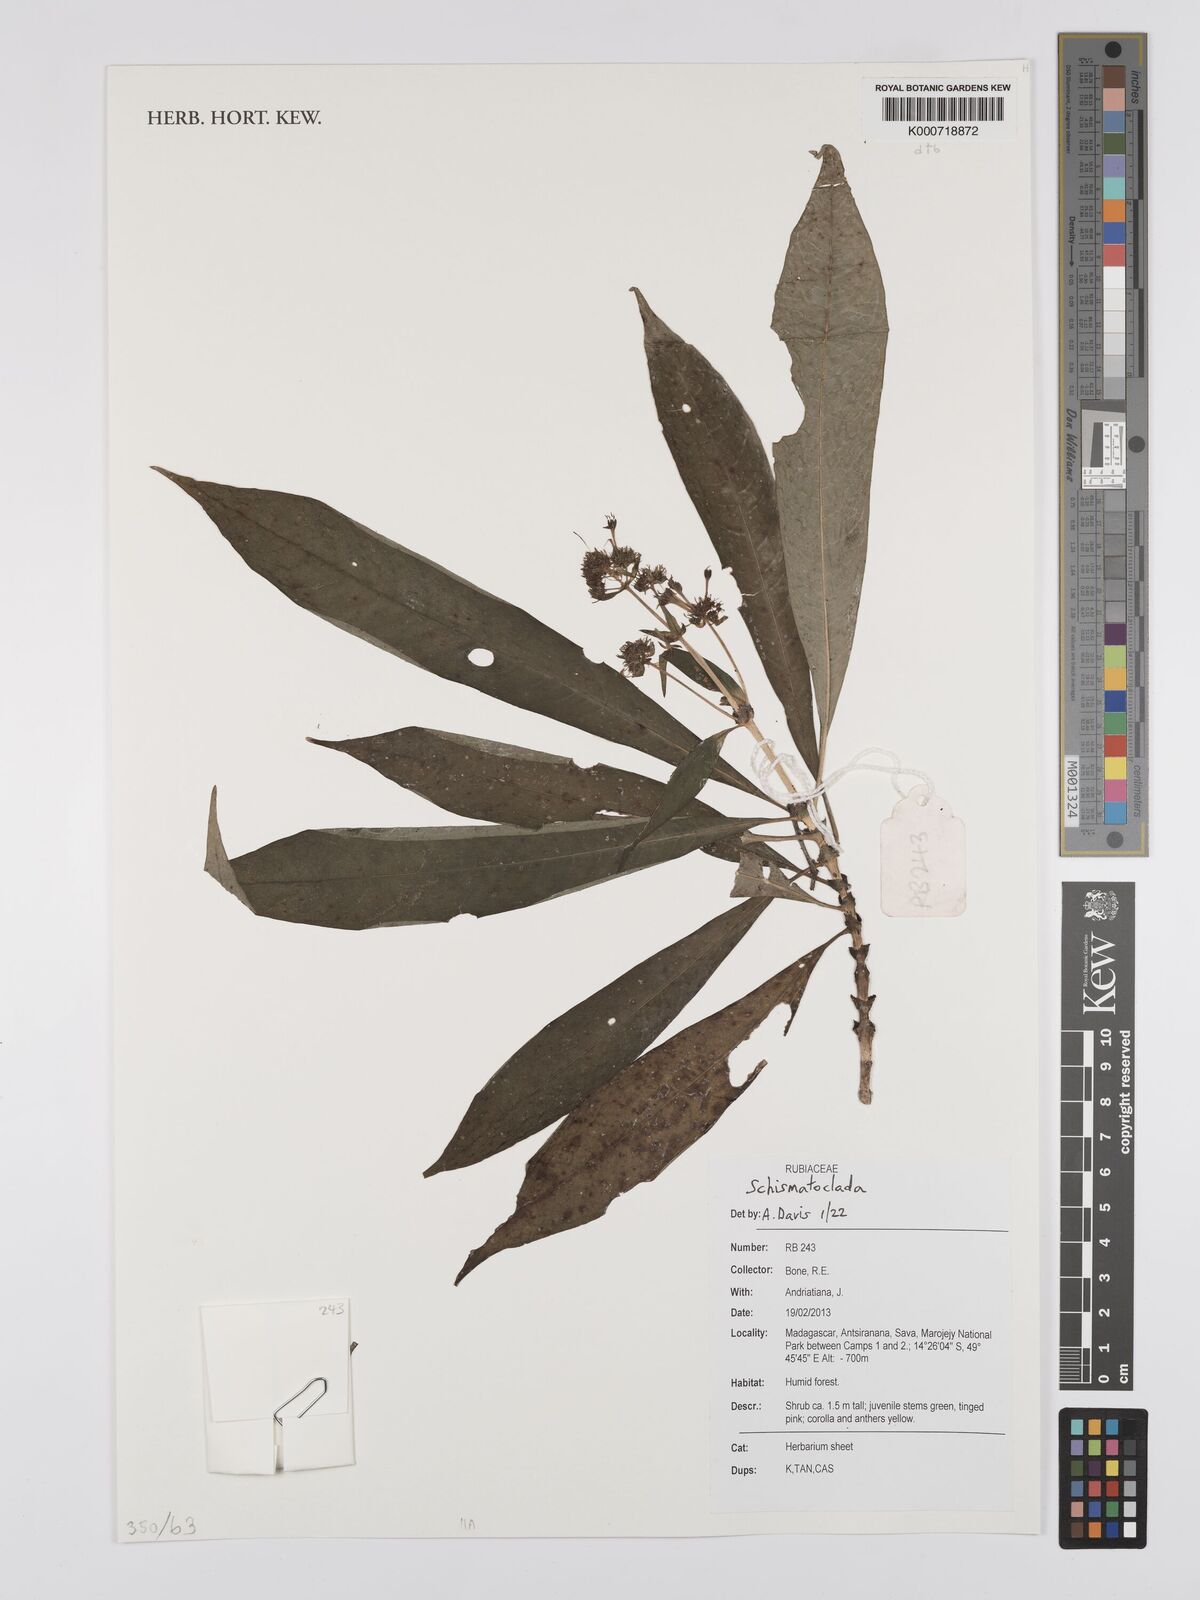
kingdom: Plantae
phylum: Tracheophyta
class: Magnoliopsida
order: Gentianales
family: Rubiaceae
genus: Schismatoclada
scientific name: Schismatoclada
